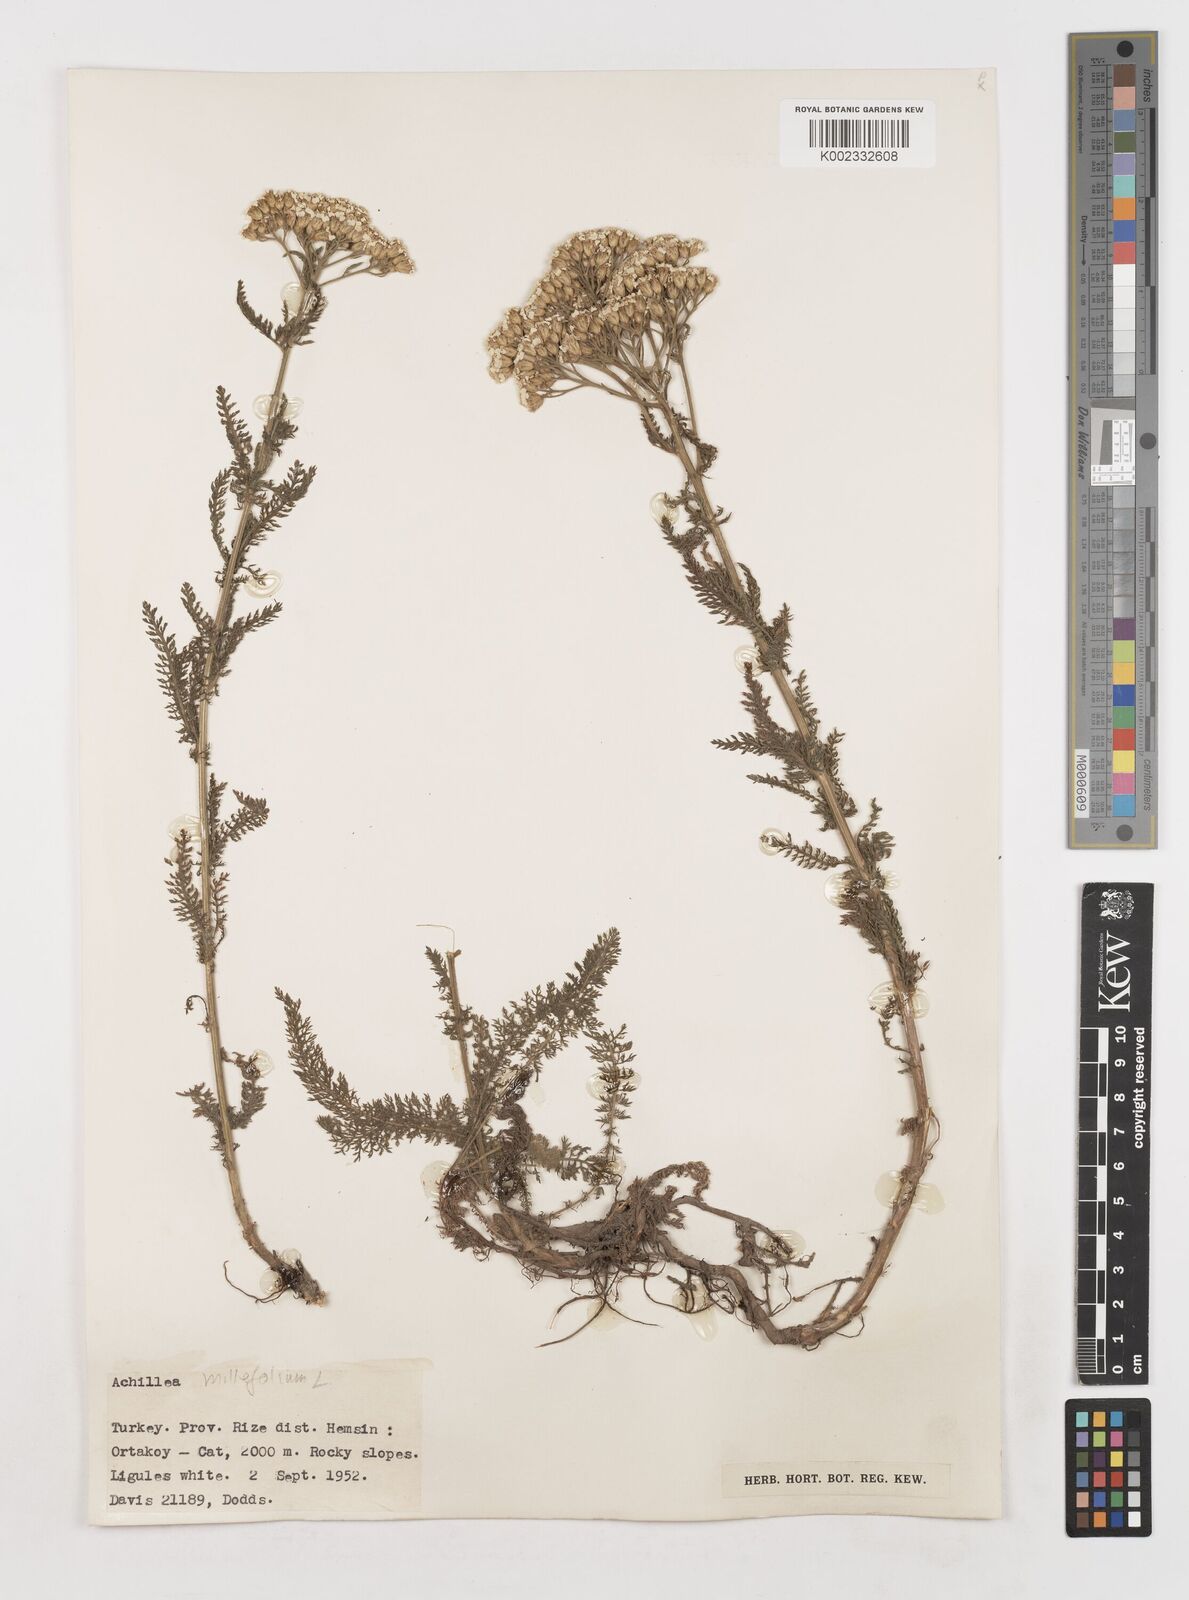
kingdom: Plantae
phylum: Tracheophyta
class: Magnoliopsida
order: Asterales
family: Asteraceae
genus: Achillea
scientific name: Achillea millefolium
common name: Yarrow
